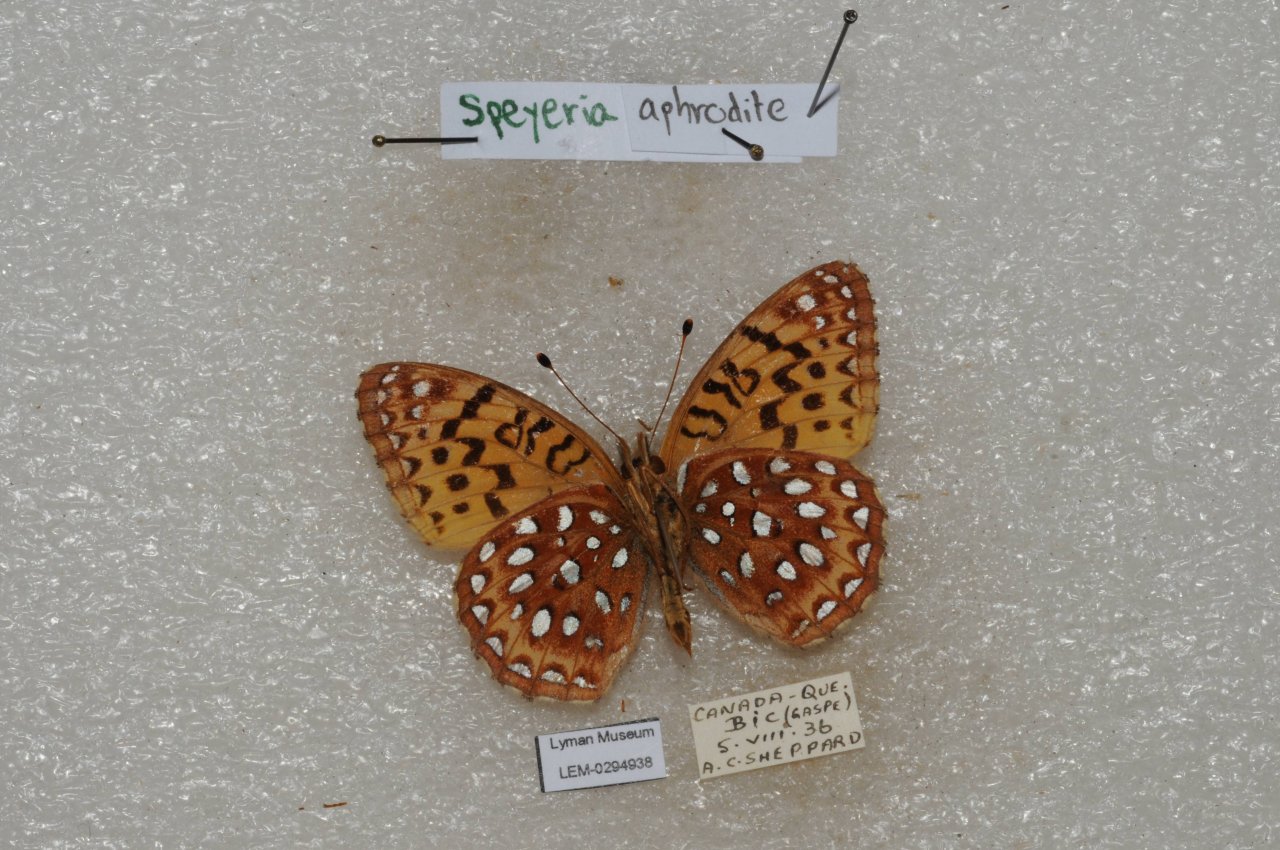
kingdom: Animalia
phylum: Arthropoda
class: Insecta
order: Lepidoptera
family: Nymphalidae
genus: Speyeria
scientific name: Speyeria aphrodite
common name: Aphrodite Fritillary
